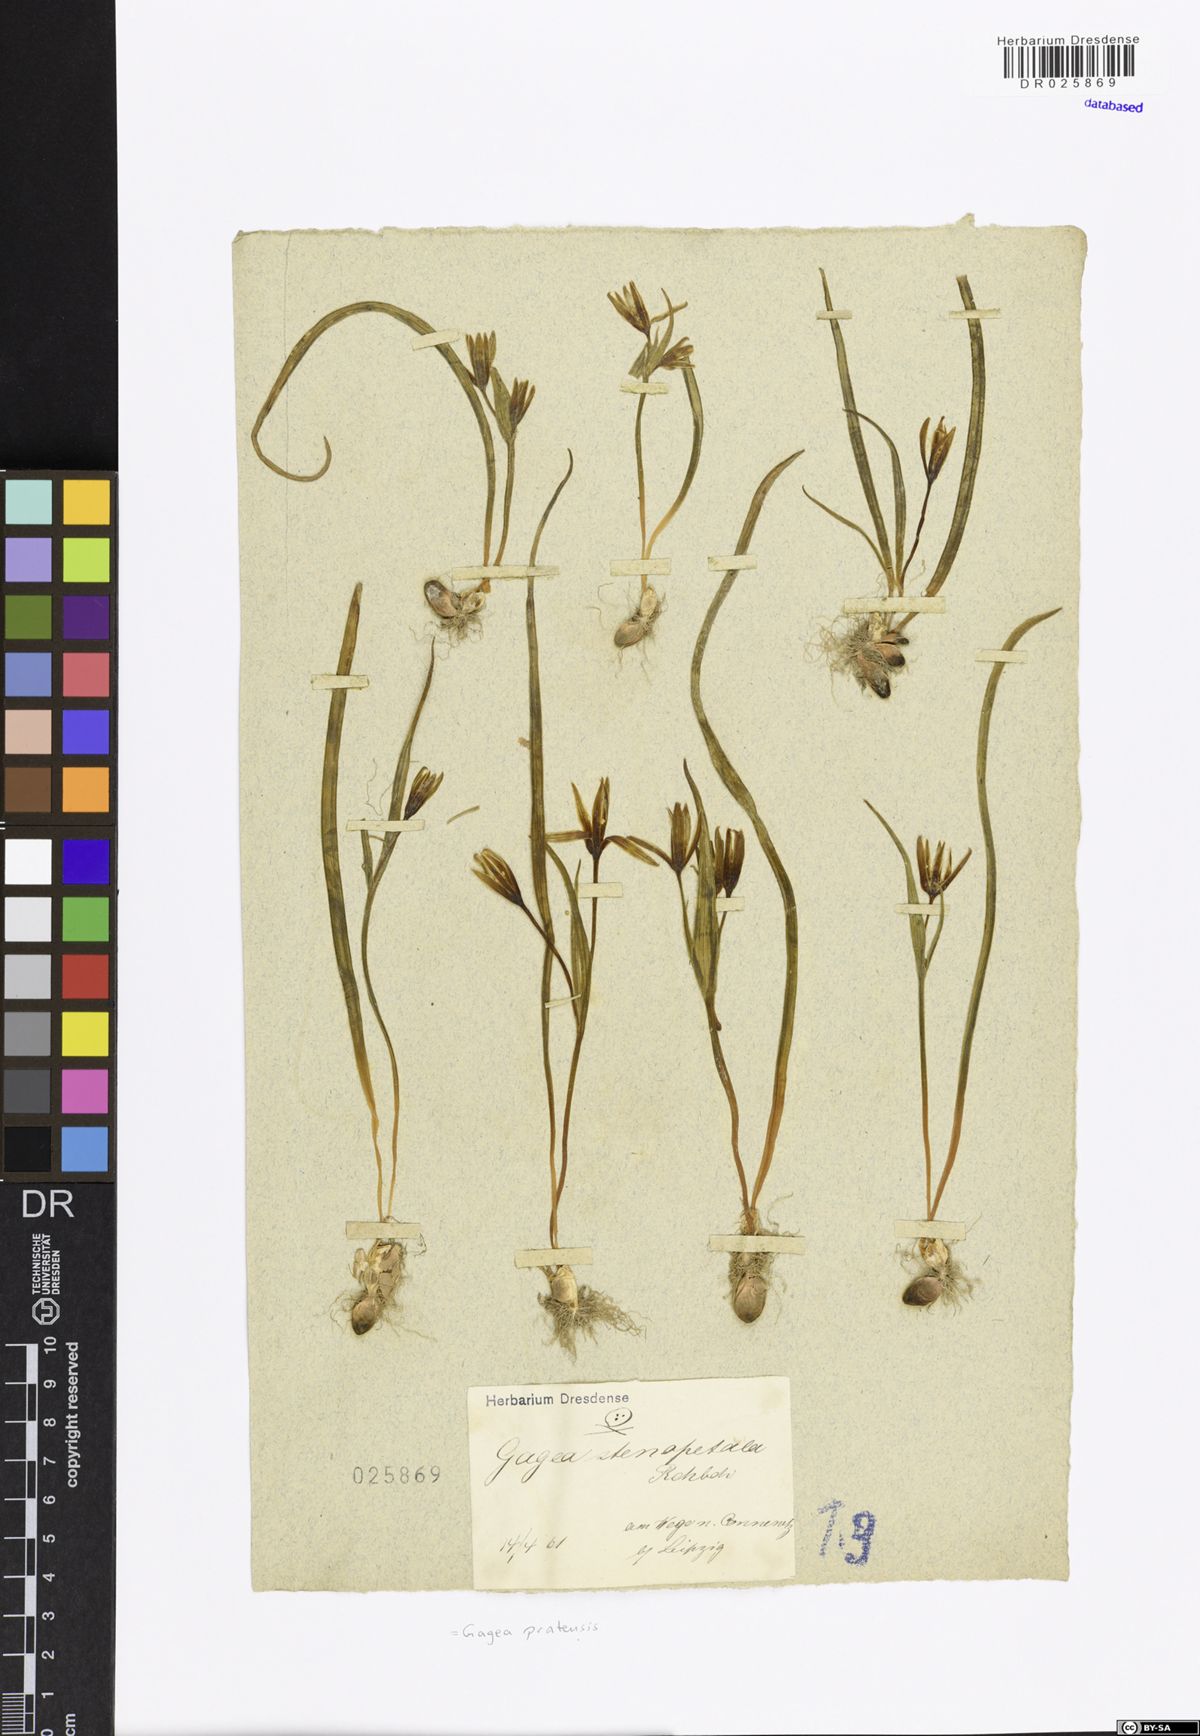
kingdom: Plantae
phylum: Tracheophyta
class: Liliopsida
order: Liliales
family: Liliaceae
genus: Gagea
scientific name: Gagea pratensis
